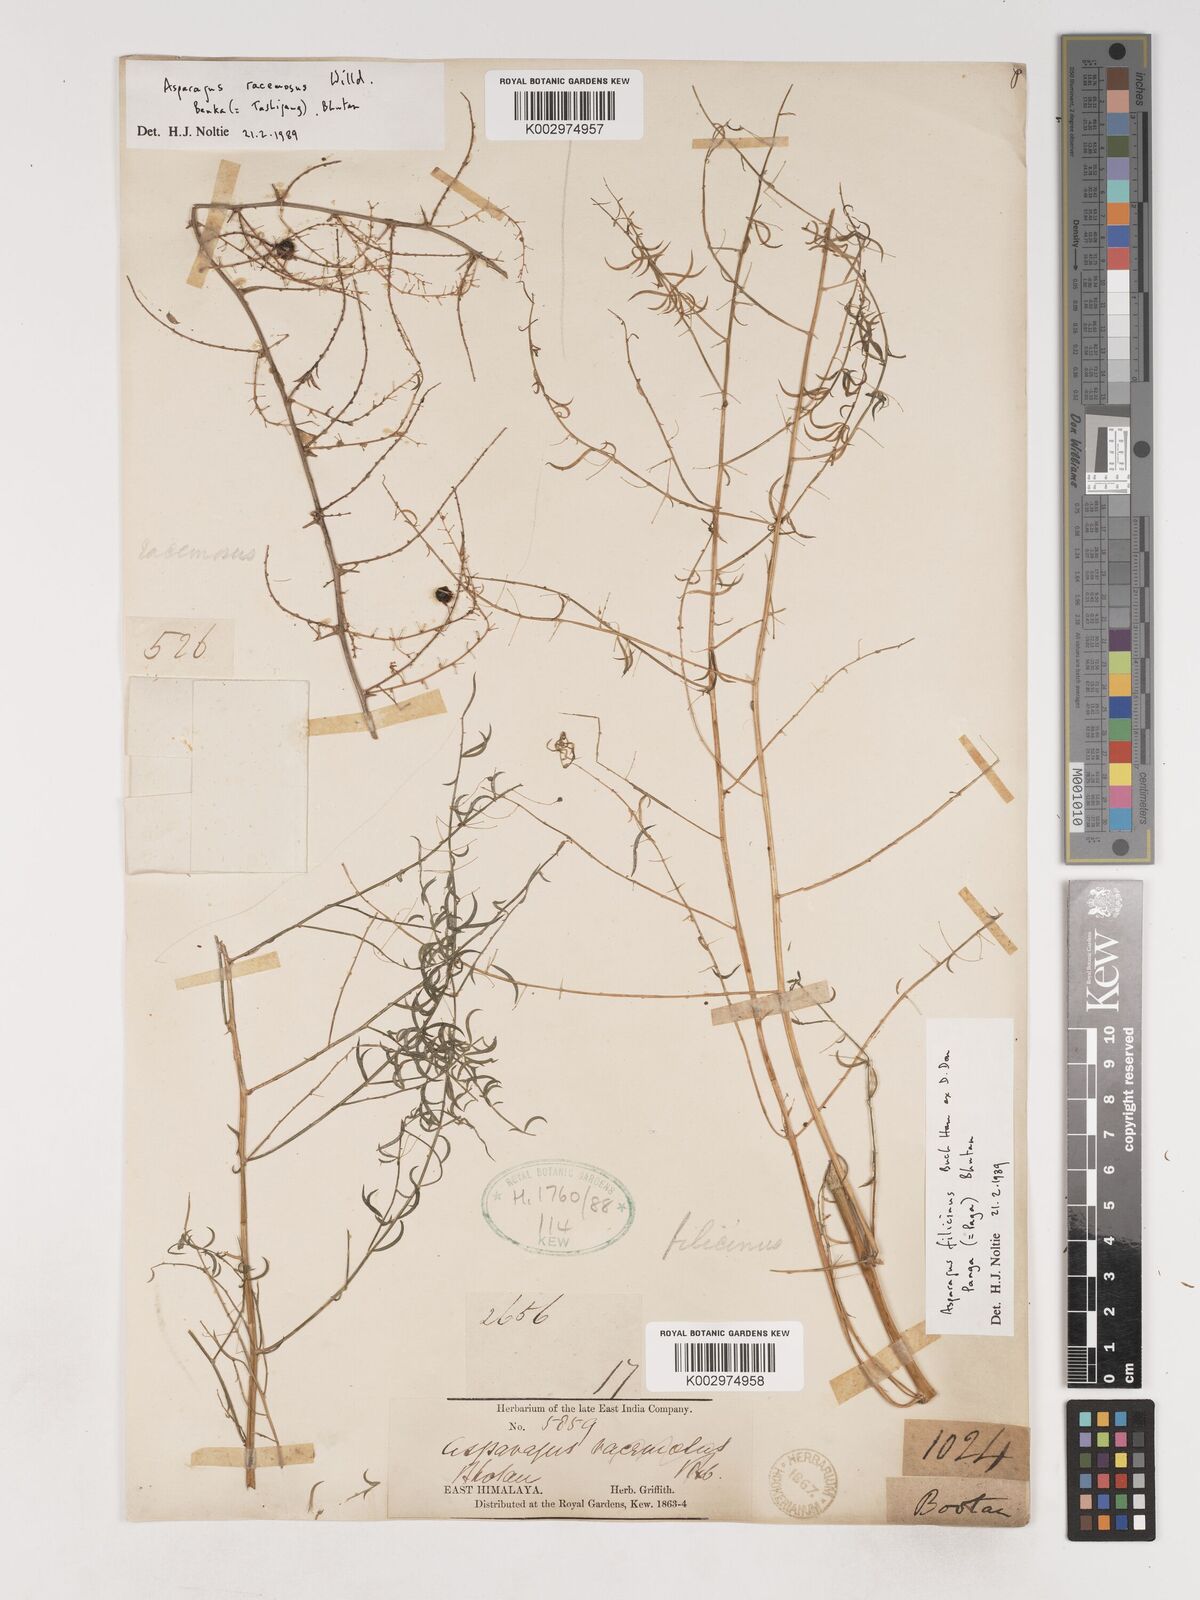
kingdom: Plantae
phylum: Tracheophyta
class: Liliopsida
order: Asparagales
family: Asparagaceae
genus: Asparagus
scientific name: Asparagus filicinus
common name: Fern asparagus
